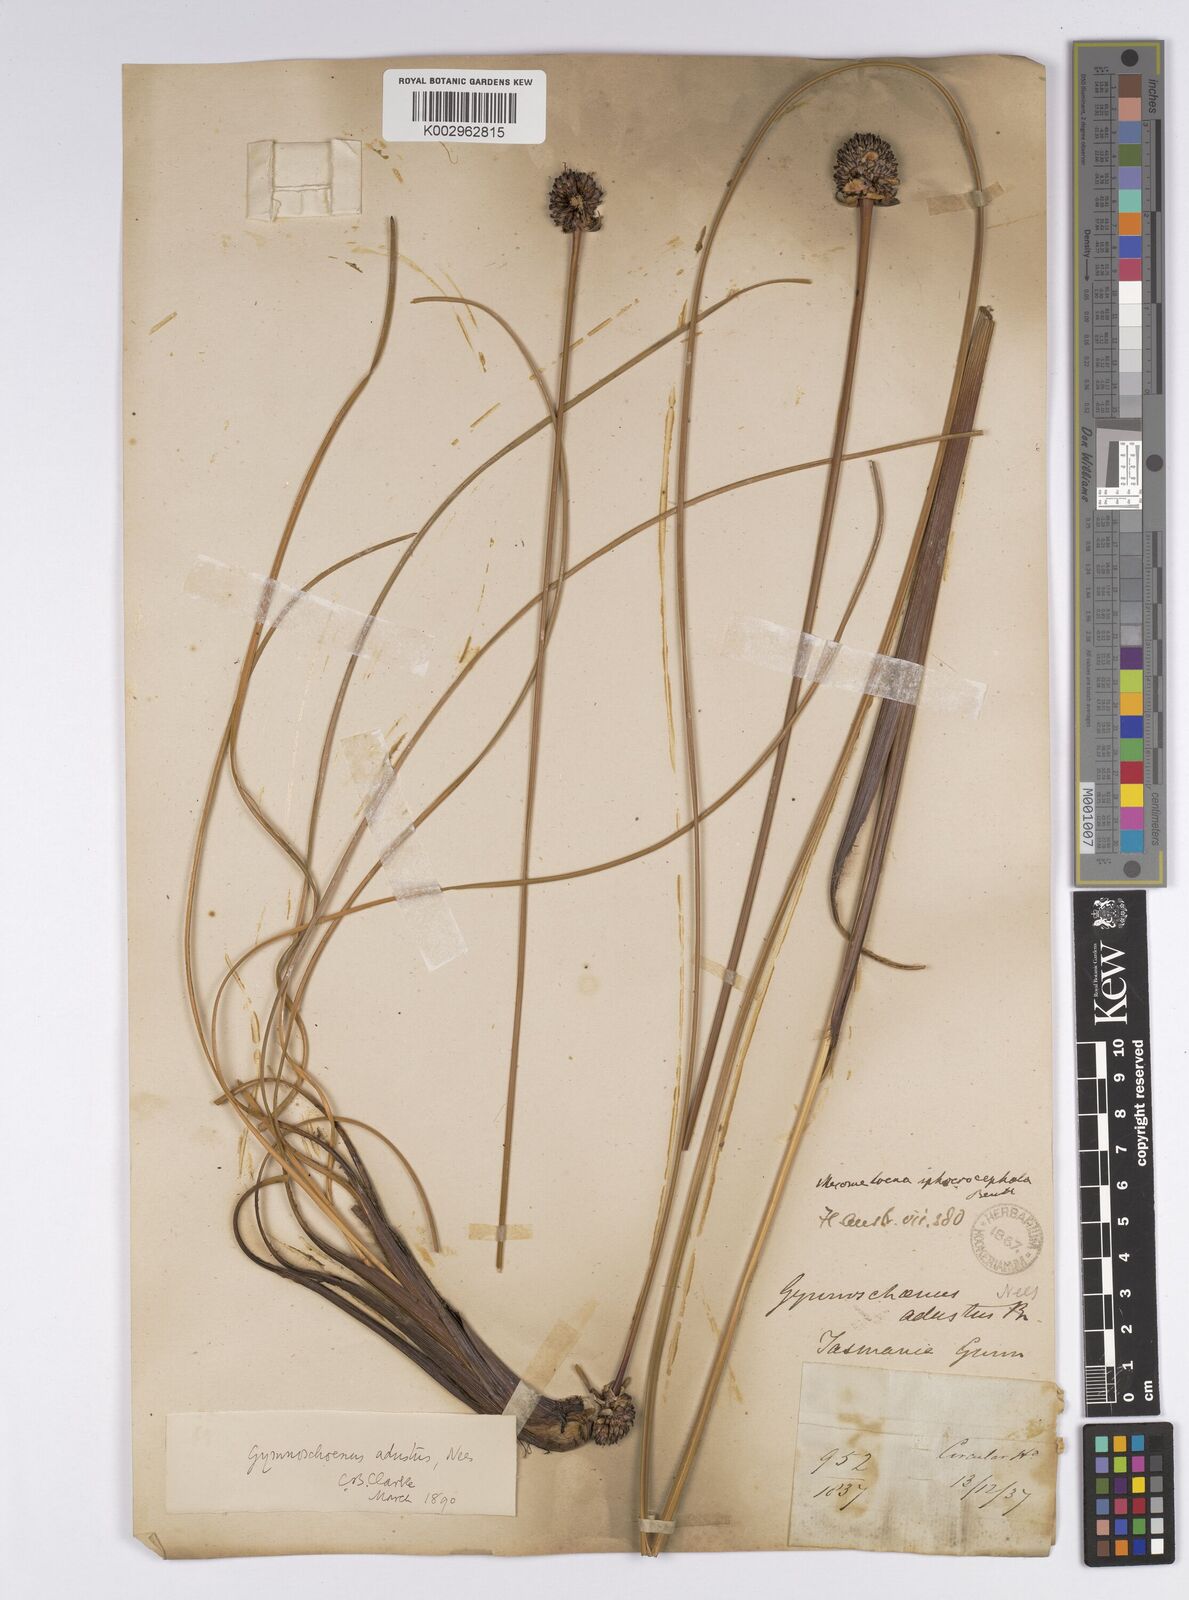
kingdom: Plantae
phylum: Tracheophyta
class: Liliopsida
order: Poales
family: Cyperaceae
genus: Gymnoschoenus
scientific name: Gymnoschoenus sphaerocephalus
